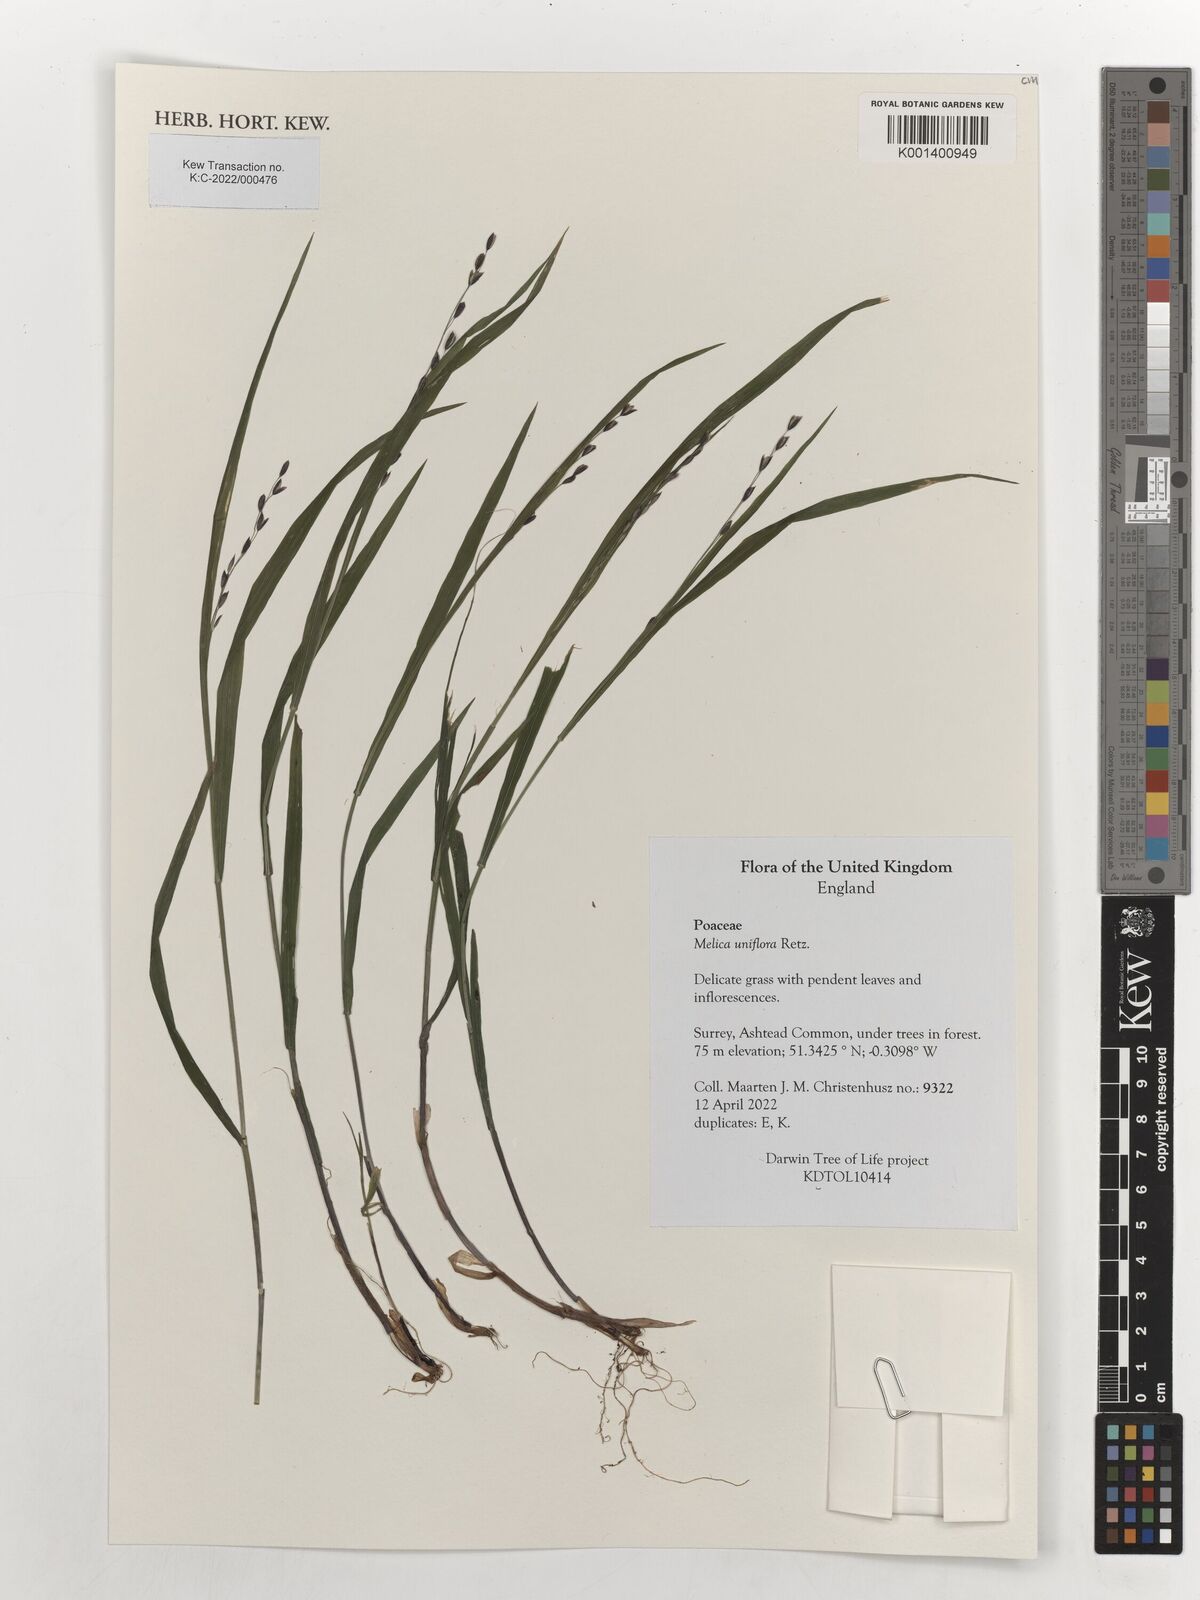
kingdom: Plantae
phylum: Tracheophyta
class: Liliopsida
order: Poales
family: Poaceae
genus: Melica
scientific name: Melica uniflora
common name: Wood melick
